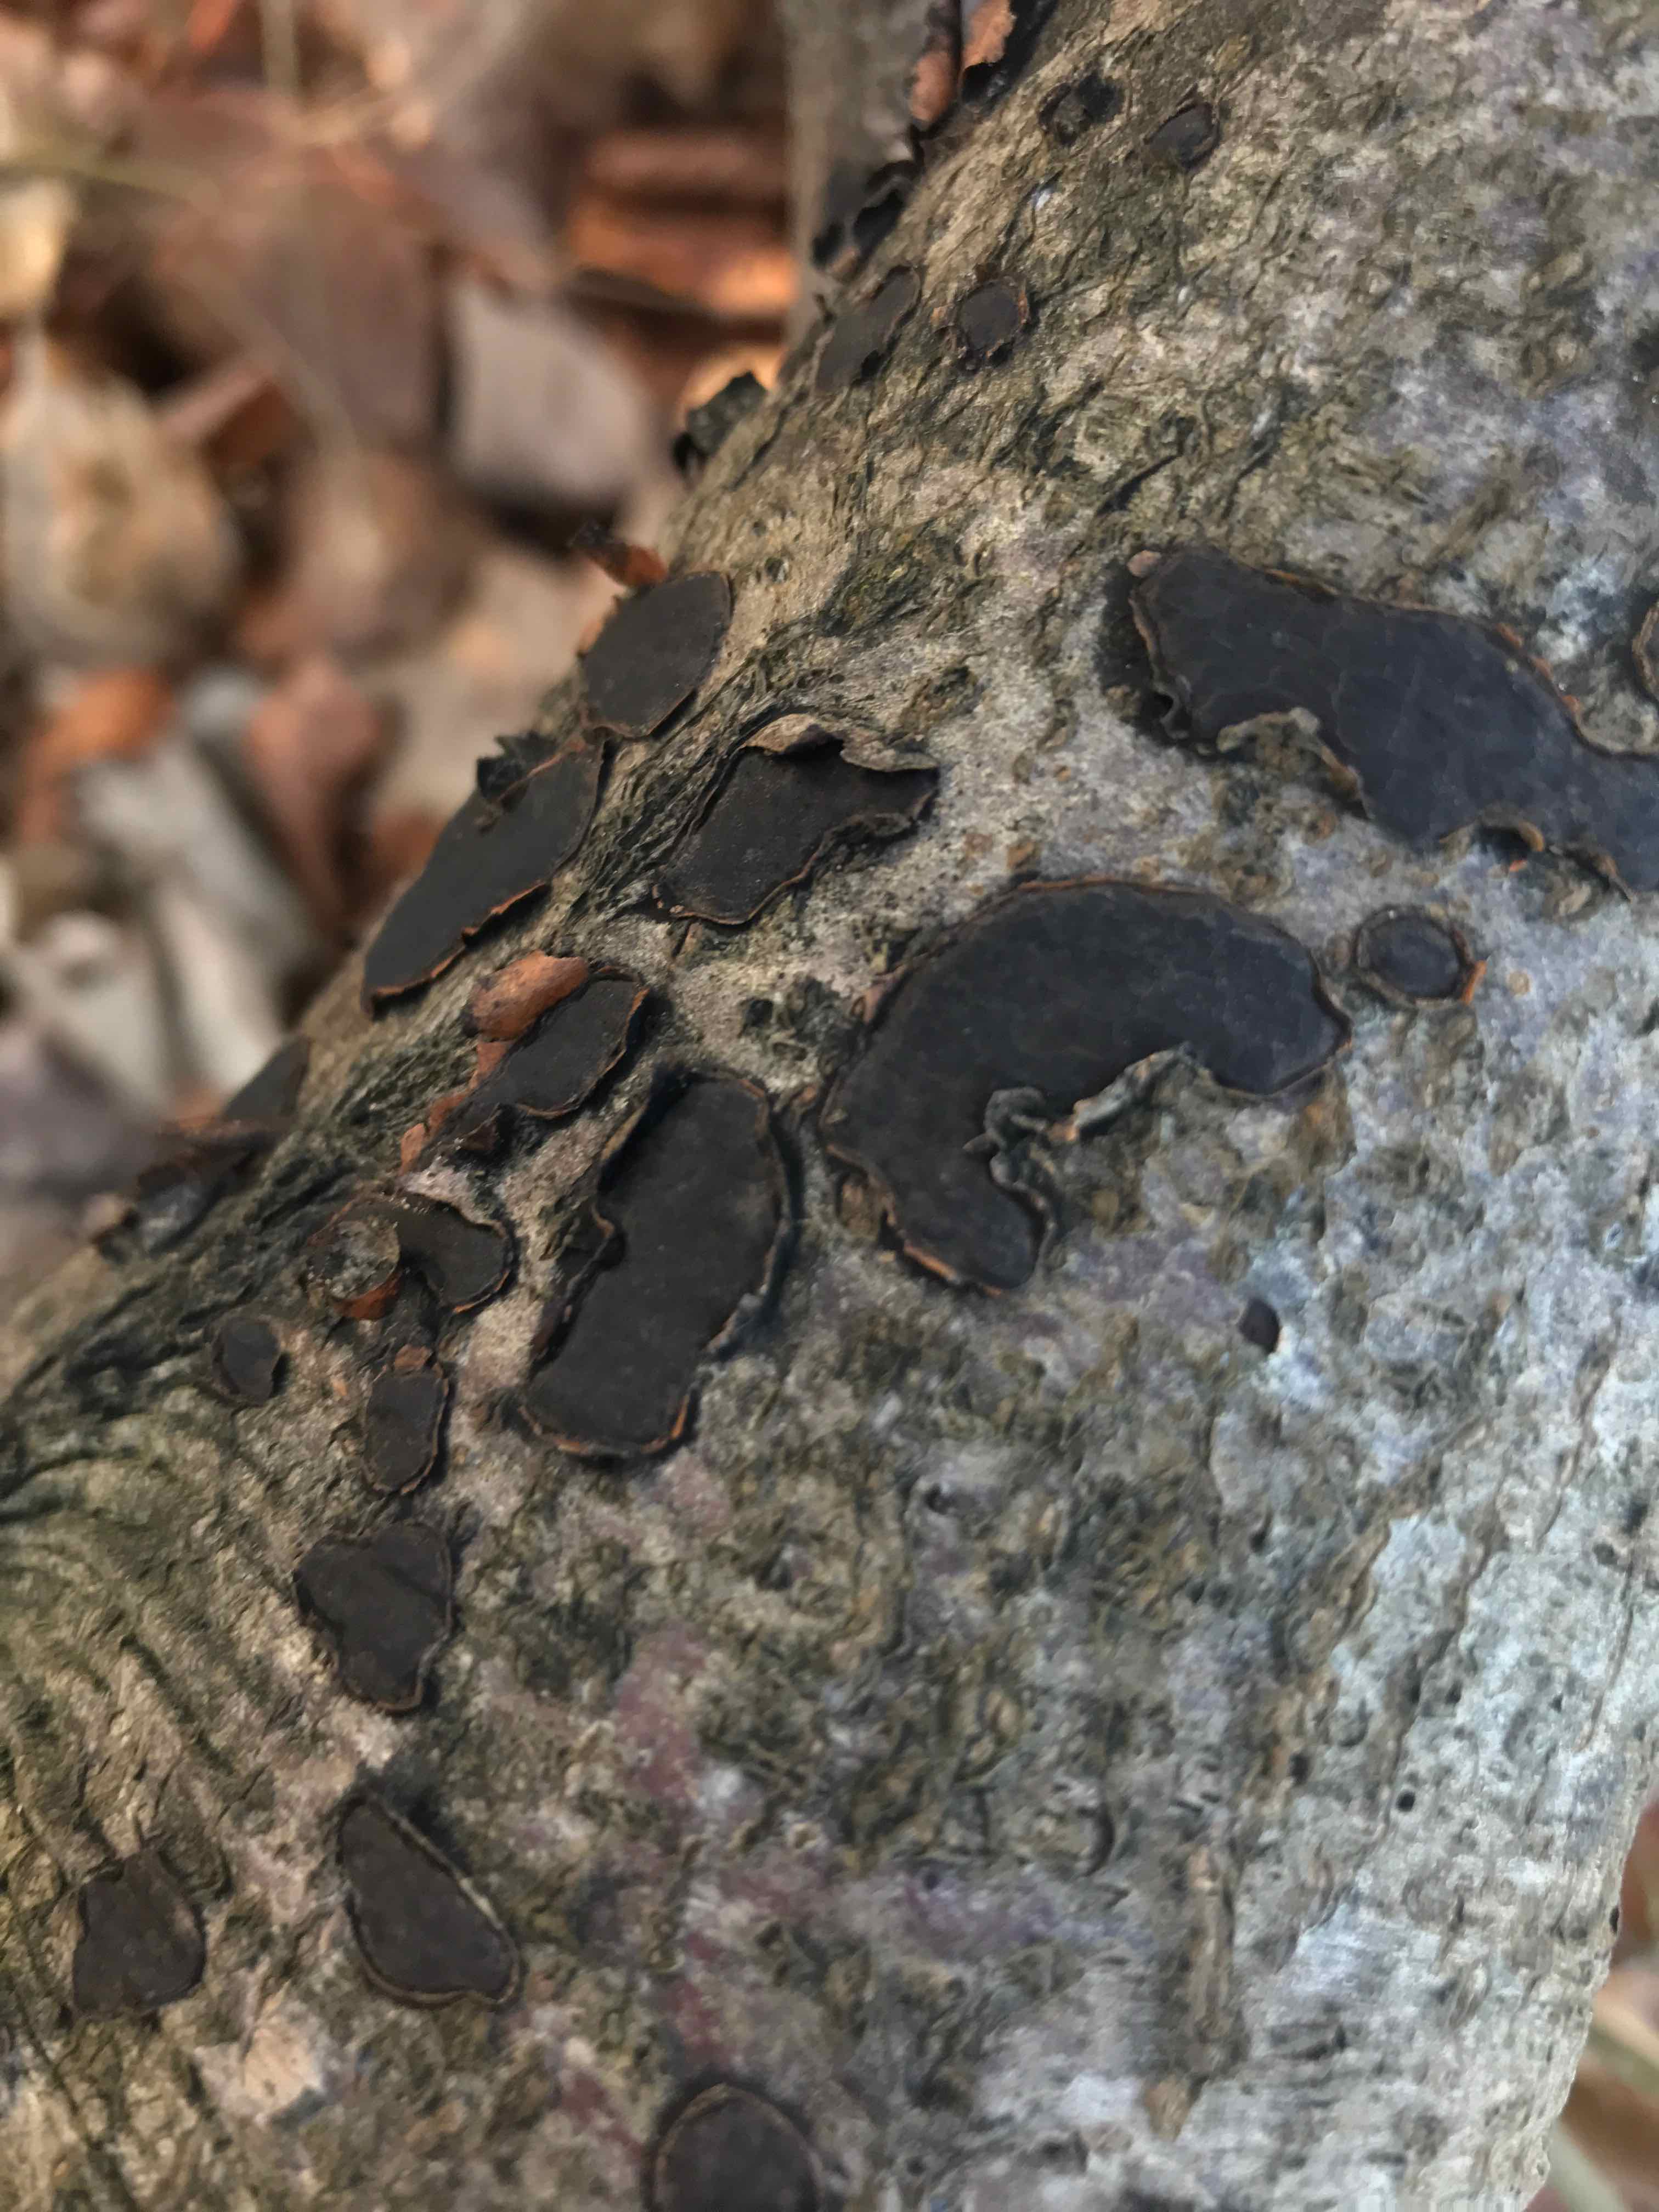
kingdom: Fungi
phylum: Ascomycota
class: Sordariomycetes
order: Xylariales
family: Graphostromataceae
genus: Biscogniauxia
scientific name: Biscogniauxia nummularia
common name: bøge-kulskive
